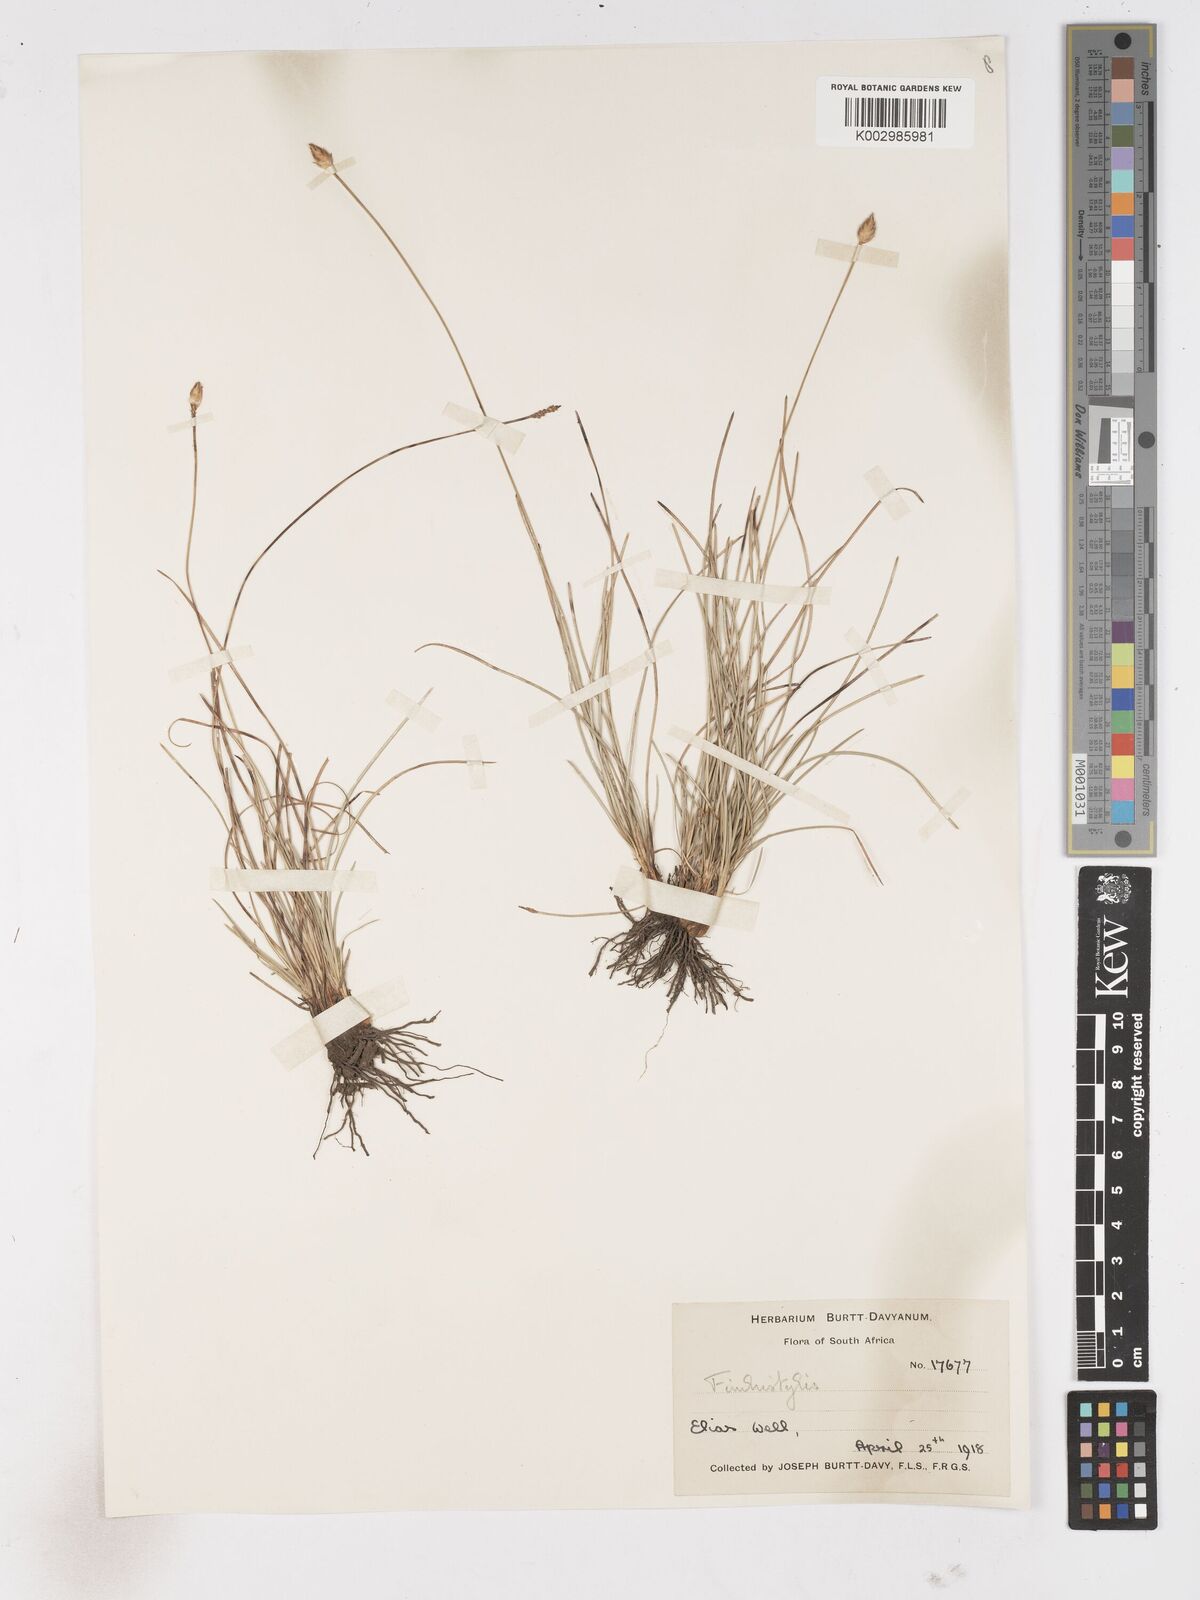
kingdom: Plantae
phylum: Tracheophyta
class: Liliopsida
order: Poales
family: Cyperaceae
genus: Abildgaardia
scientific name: Abildgaardia ovata
